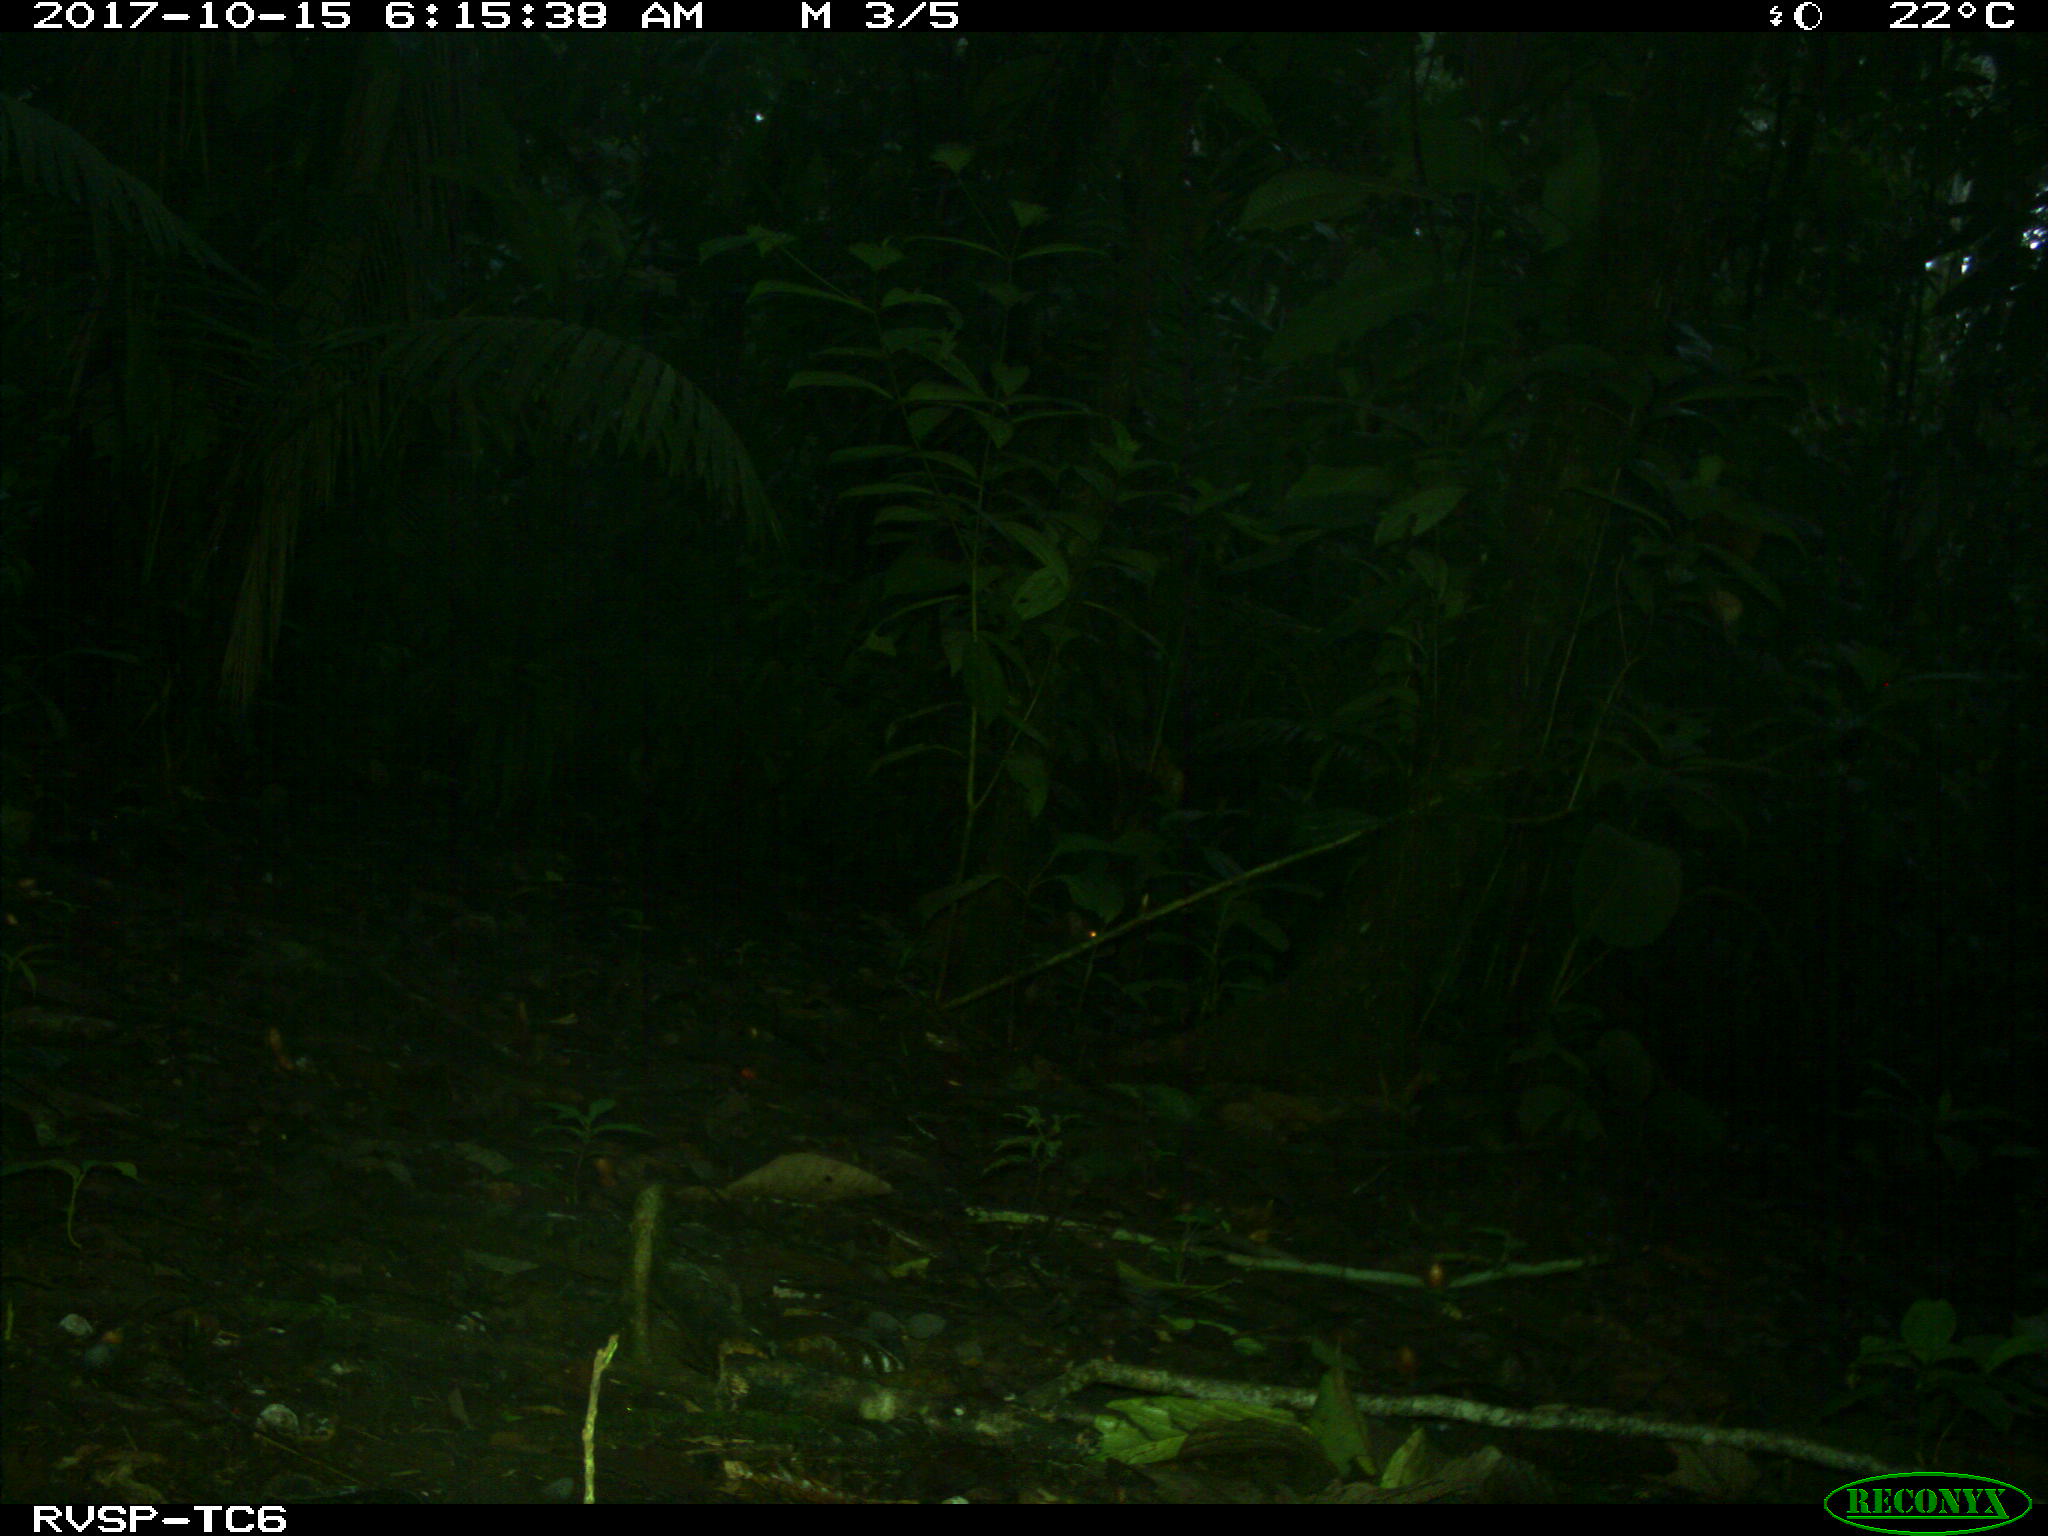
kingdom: Animalia
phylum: Chordata
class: Mammalia
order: Rodentia
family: Dasyproctidae
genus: Dasyprocta
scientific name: Dasyprocta punctata
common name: Central american agouti
